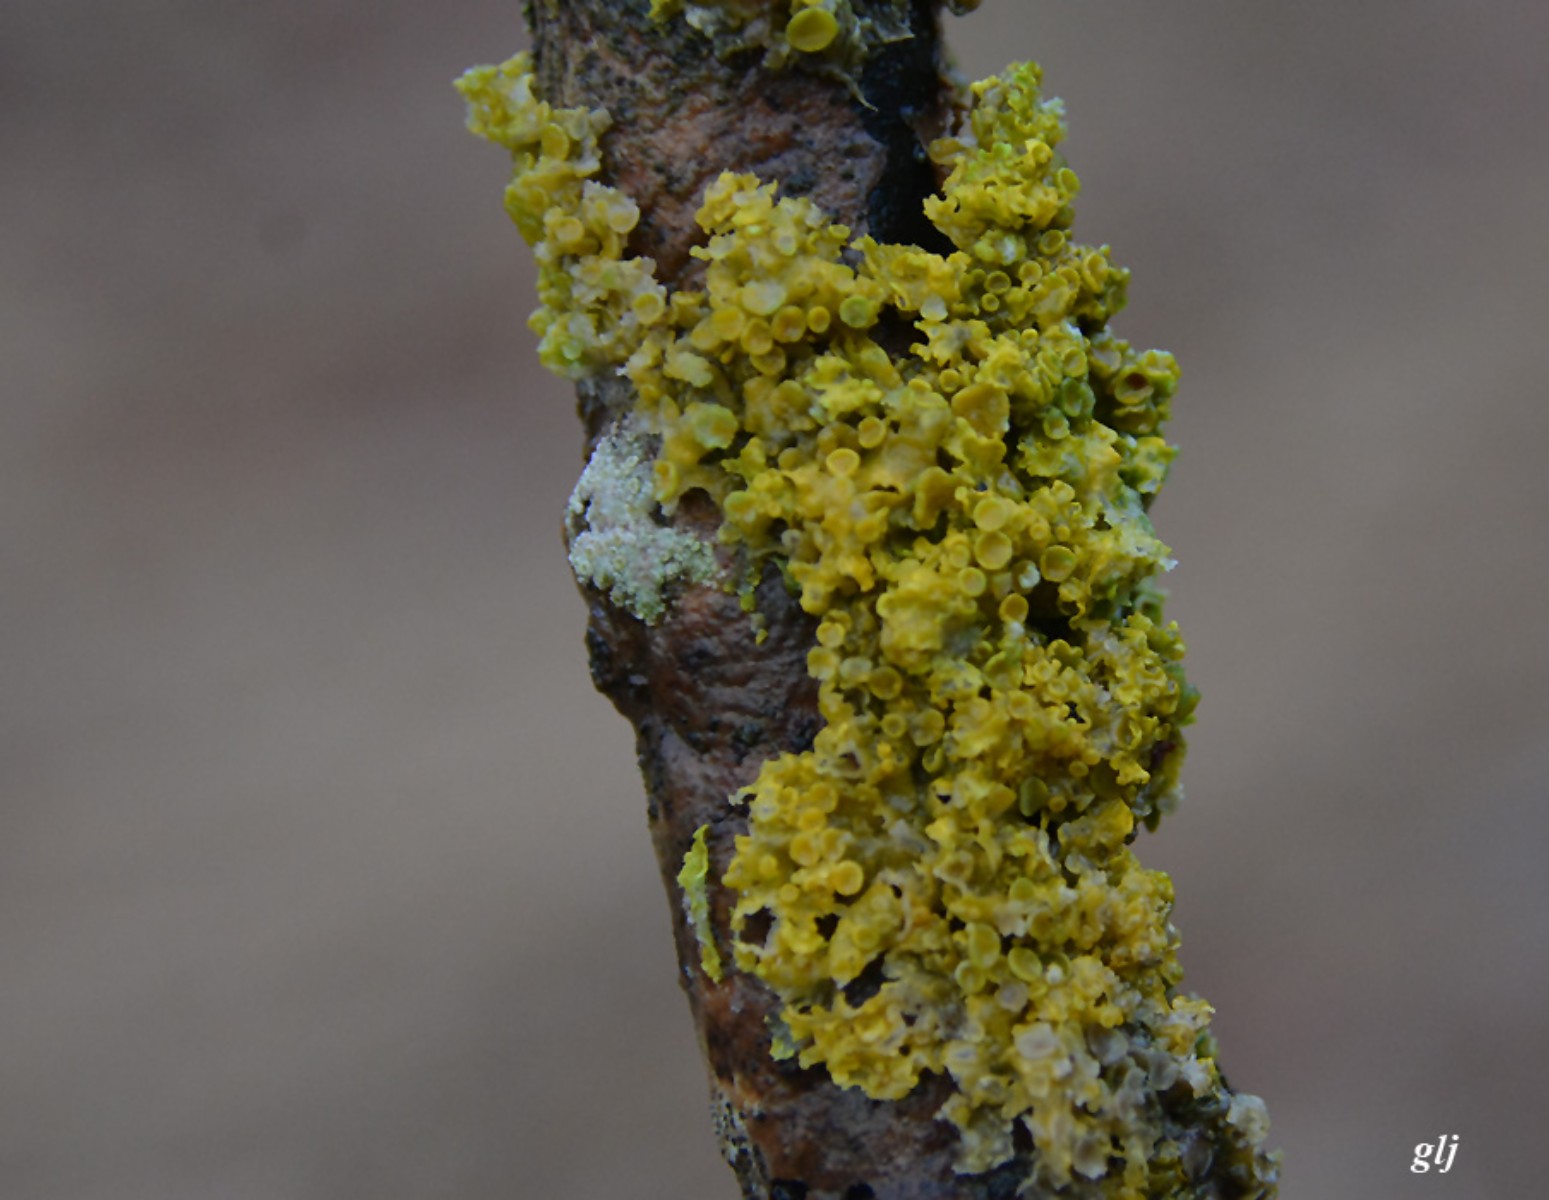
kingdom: Fungi
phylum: Ascomycota
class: Lecanoromycetes
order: Teloschistales
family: Teloschistaceae
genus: Xanthoria
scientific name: Xanthoria parietina
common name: almindelig væggelav
